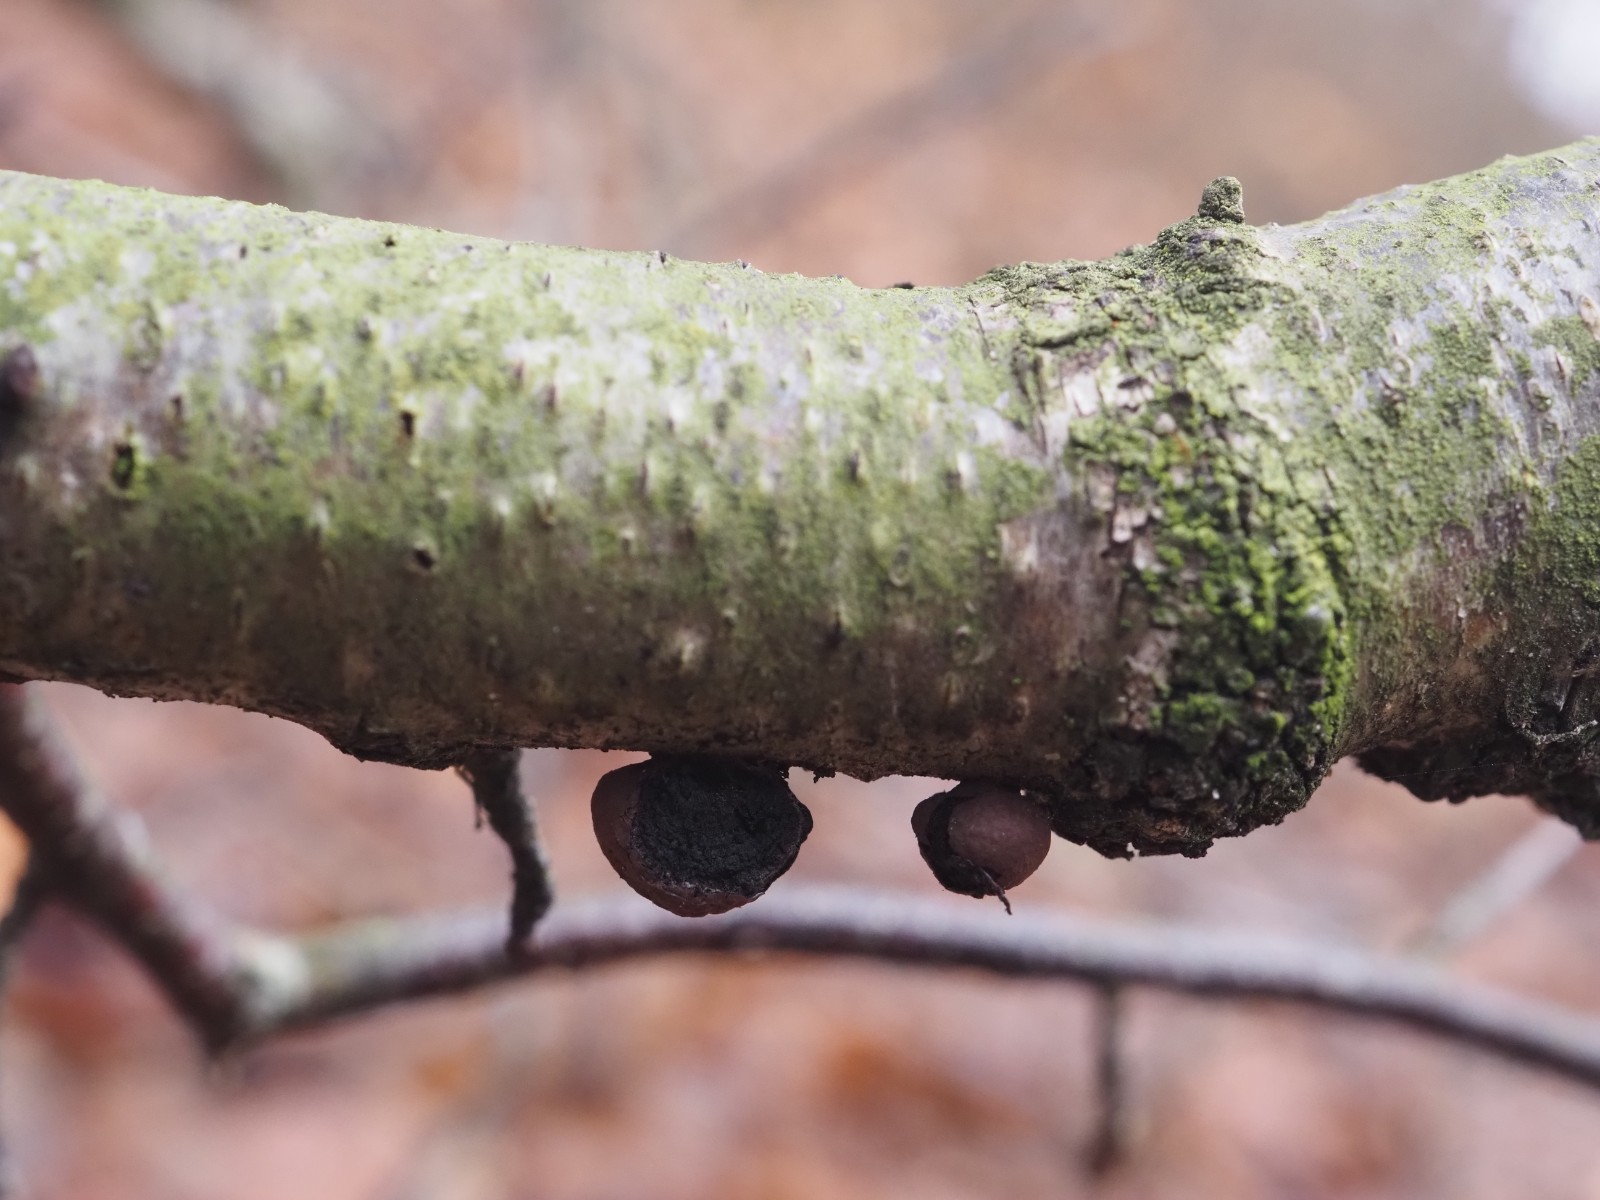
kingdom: Fungi
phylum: Ascomycota
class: Sordariomycetes
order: Xylariales
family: Hypoxylaceae
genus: Daldinia
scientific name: Daldinia decipiens
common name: stilket bæltekugle
